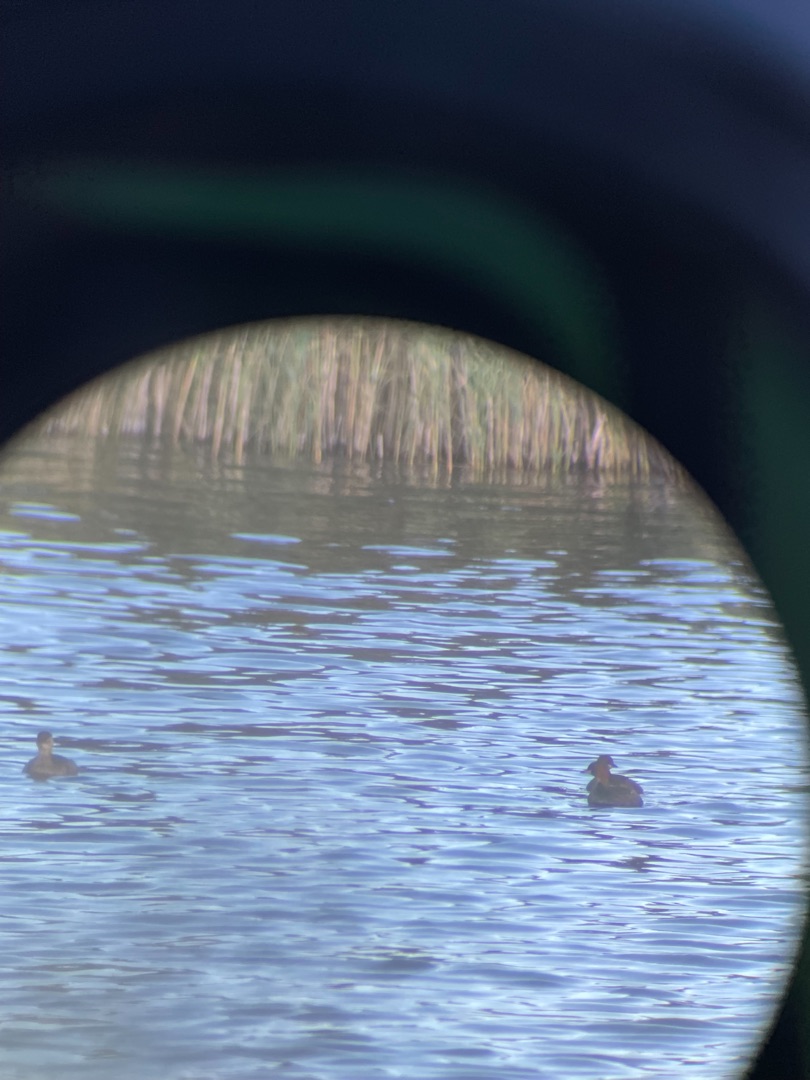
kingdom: Animalia
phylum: Chordata
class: Aves
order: Podicipediformes
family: Podicipedidae
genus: Tachybaptus
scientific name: Tachybaptus ruficollis
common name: Lille lappedykker
